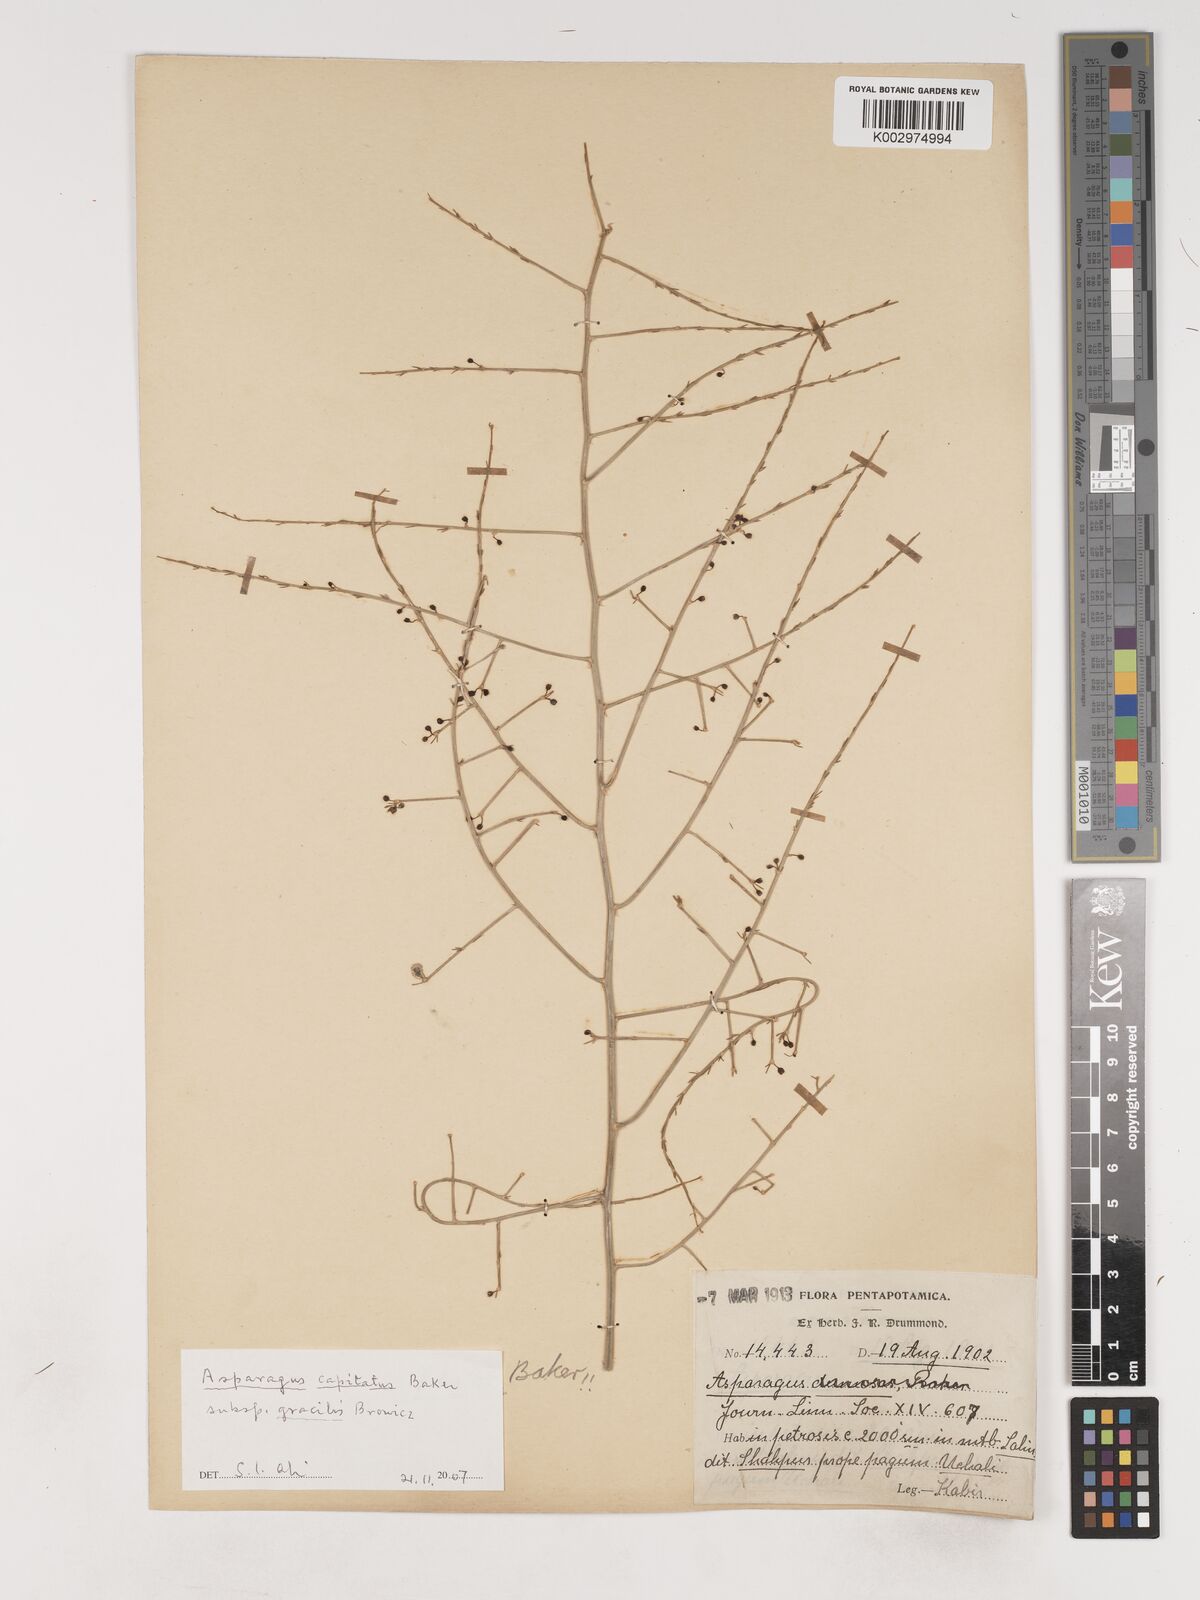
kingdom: Plantae
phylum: Tracheophyta
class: Liliopsida
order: Asparagales
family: Asparagaceae
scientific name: Asparagaceae
